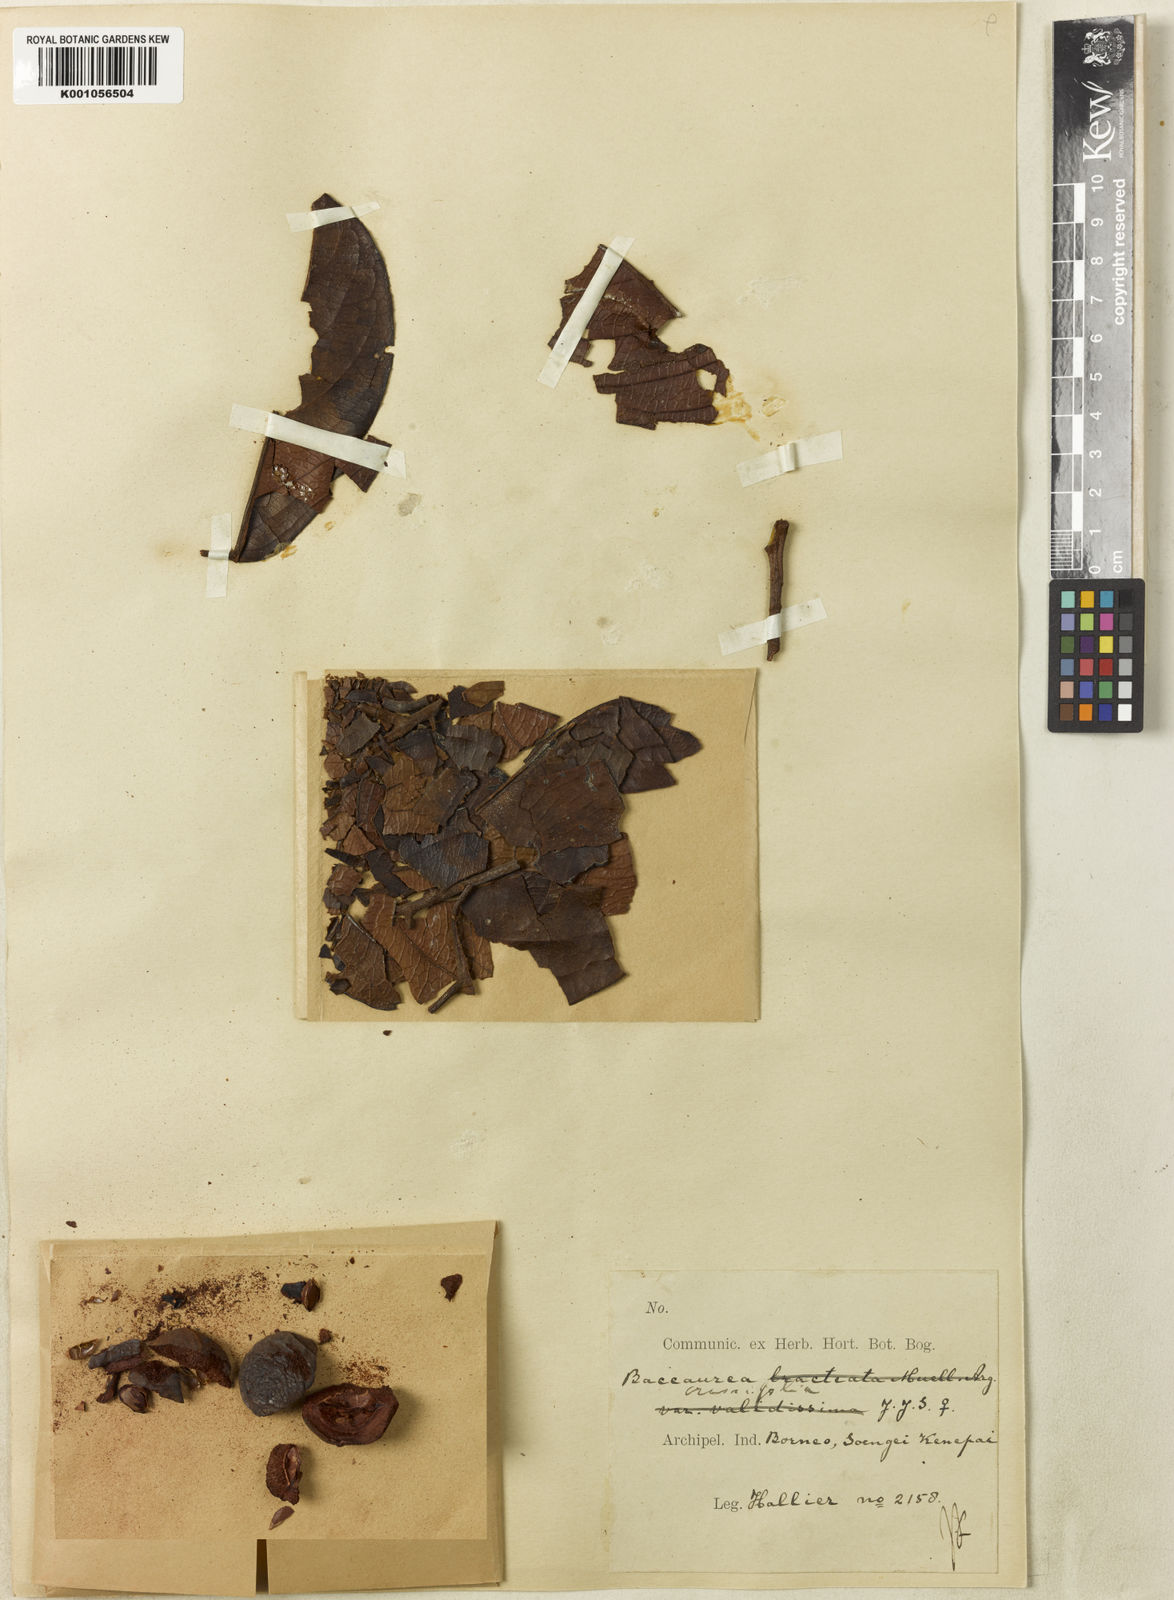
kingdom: Plantae
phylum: Tracheophyta
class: Magnoliopsida
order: Malpighiales
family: Phyllanthaceae
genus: Baccaurea
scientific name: Baccaurea
